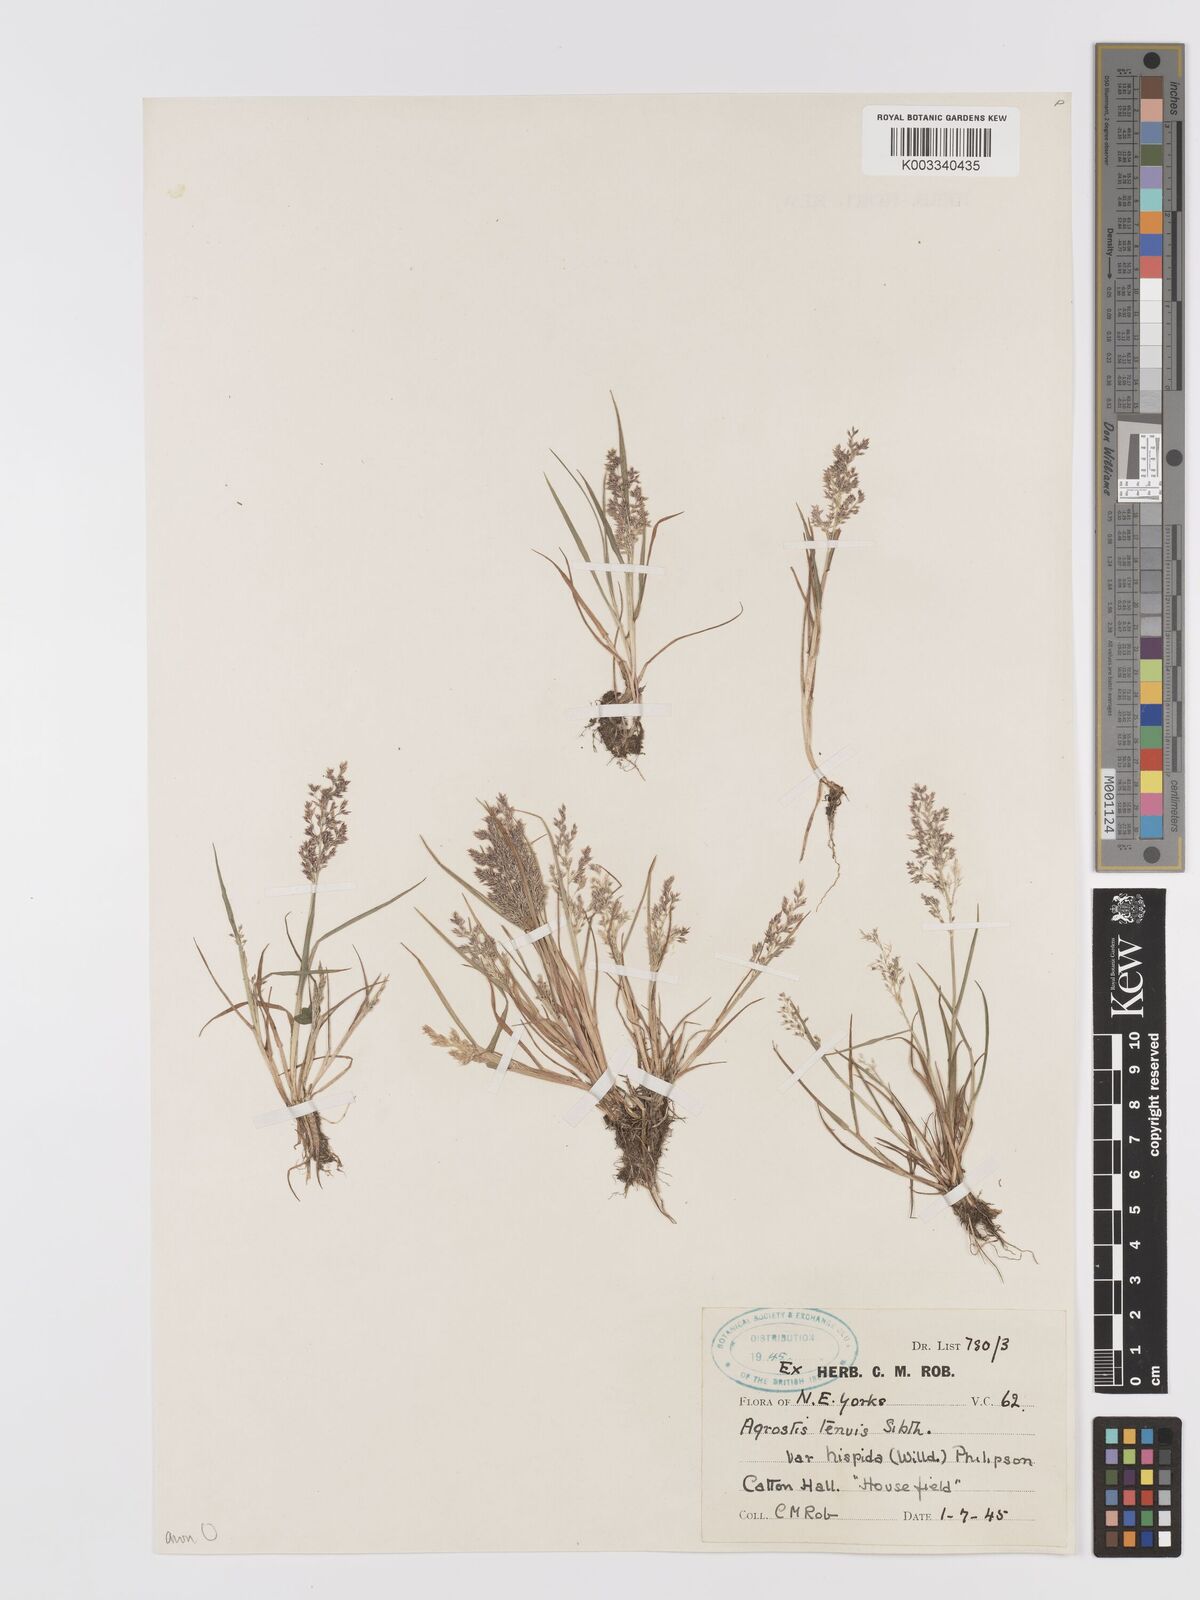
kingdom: Plantae
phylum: Tracheophyta
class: Liliopsida
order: Poales
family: Poaceae
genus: Agrostis
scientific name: Agrostis capillaris
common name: Colonial bentgrass
